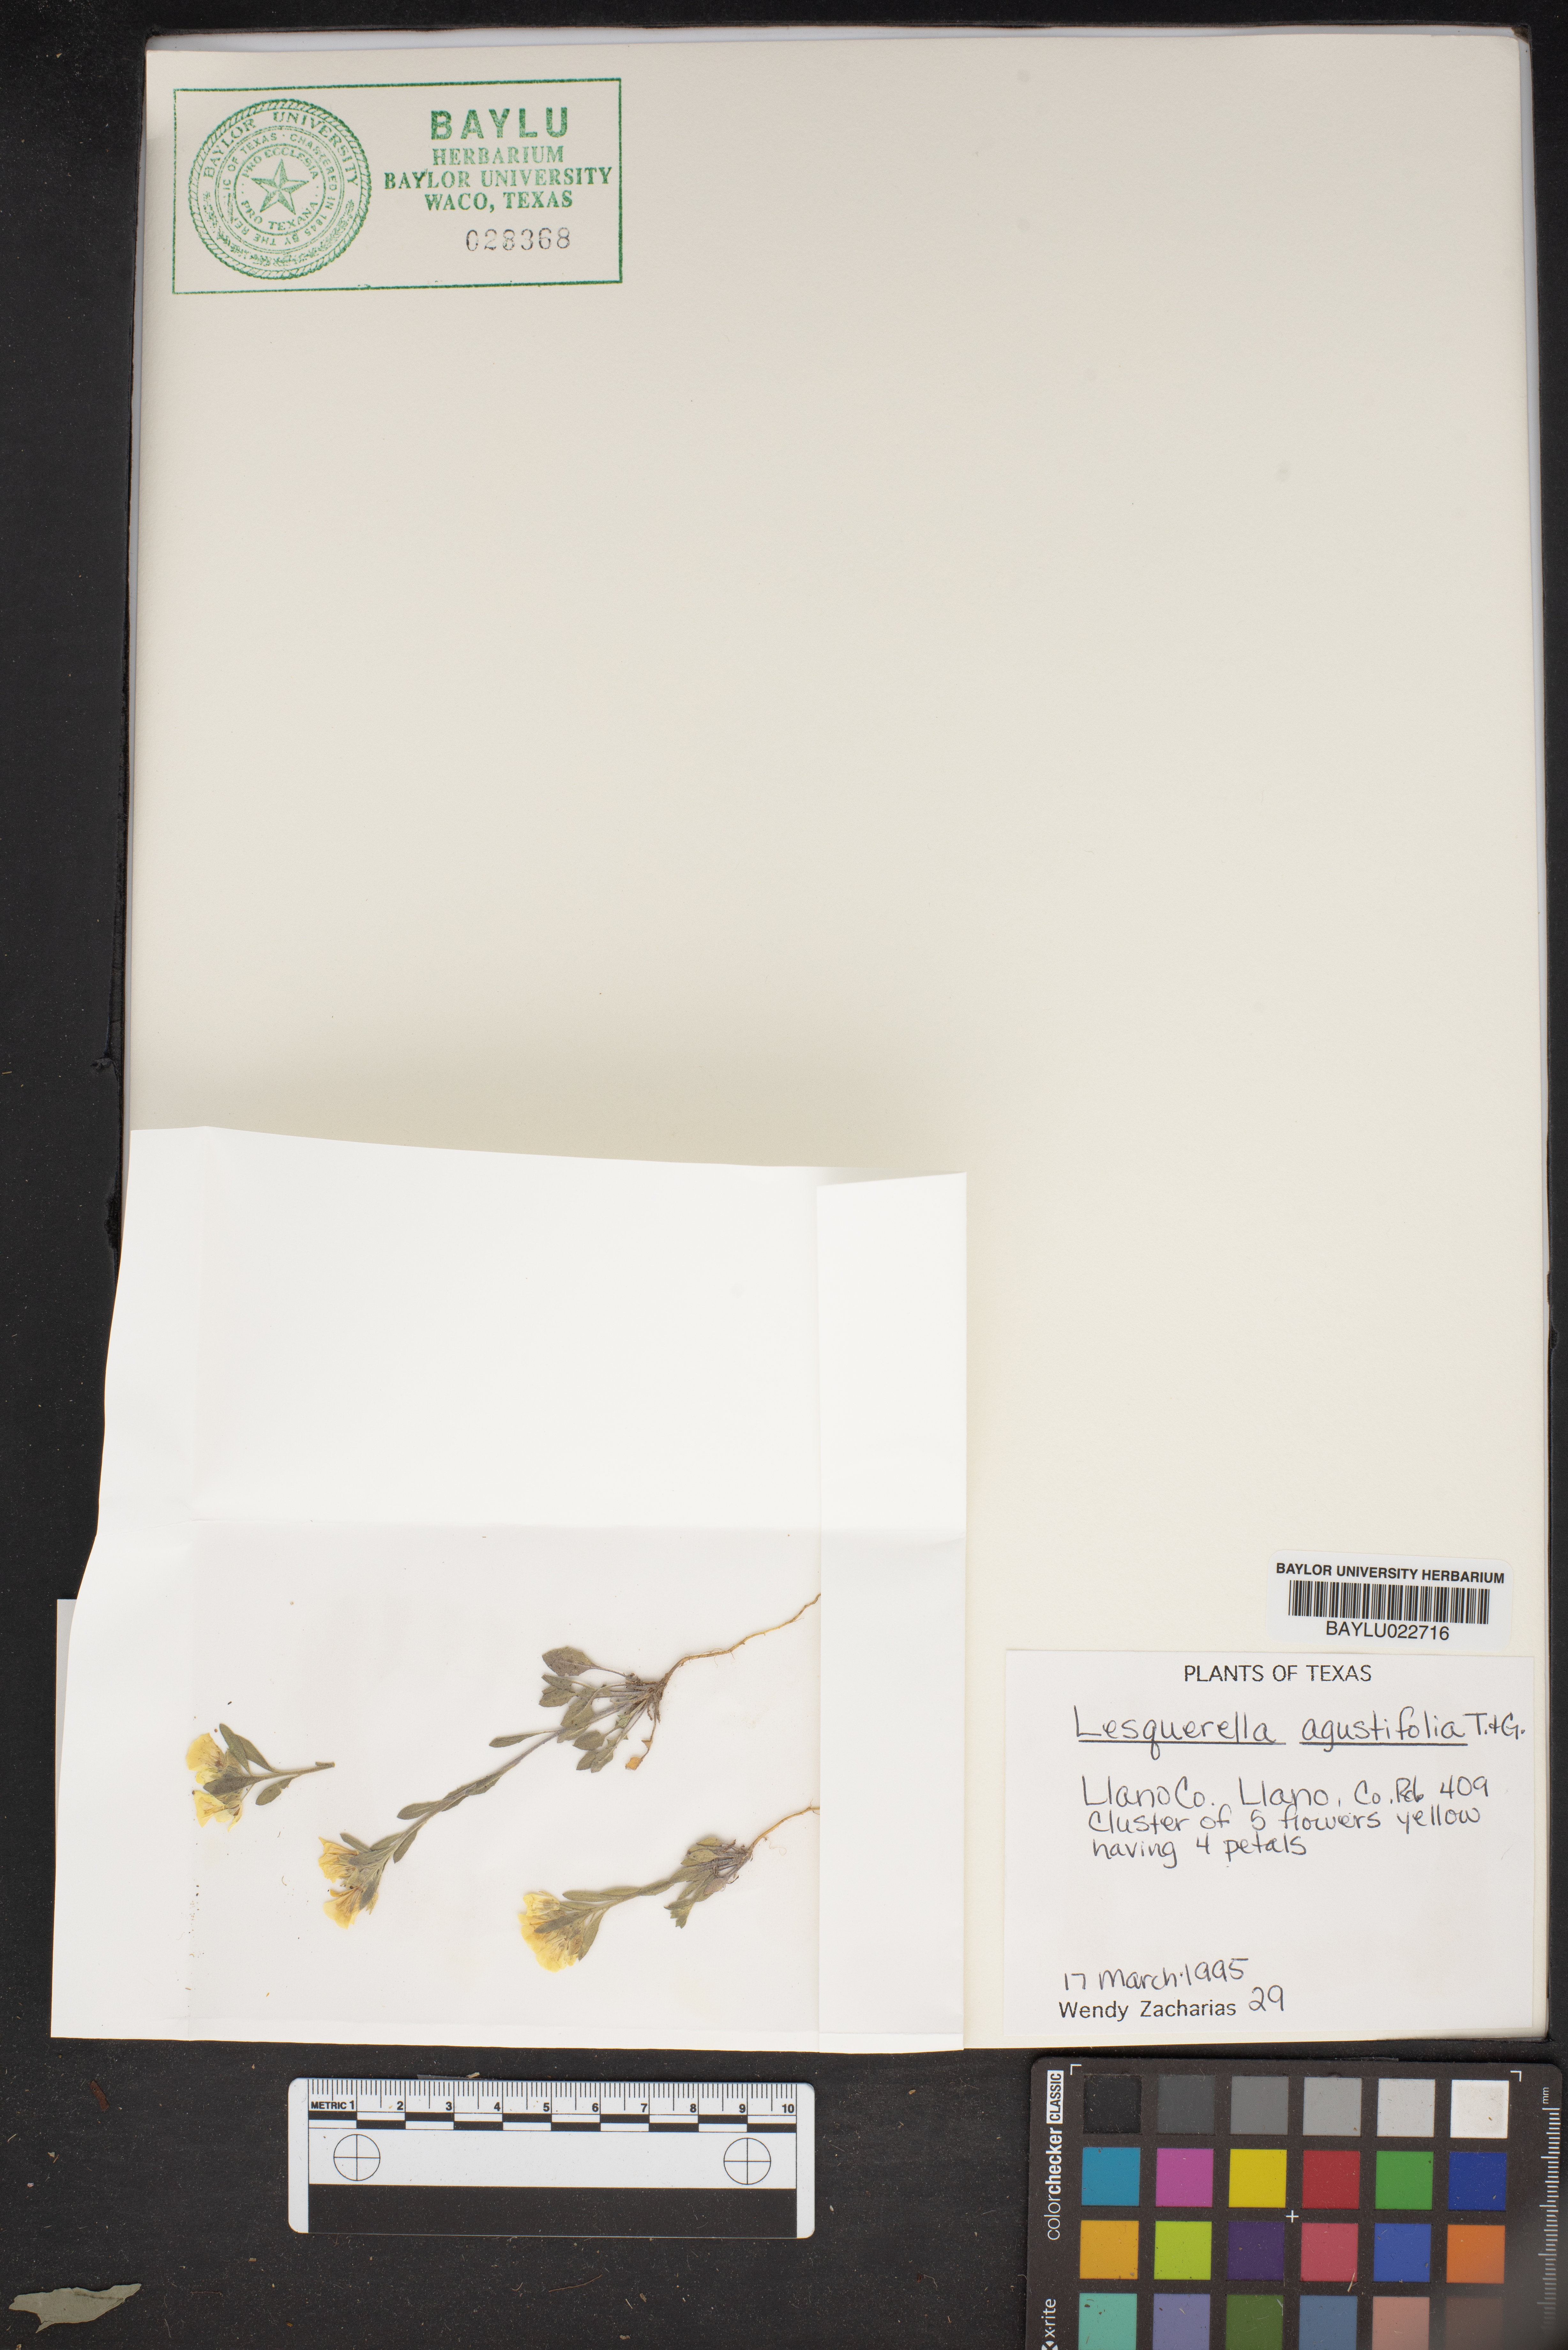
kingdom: Plantae
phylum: Tracheophyta
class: Magnoliopsida
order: Brassicales
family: Brassicaceae
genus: Physaria
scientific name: Physaria angustifolia
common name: Threadleaf bladderpod
